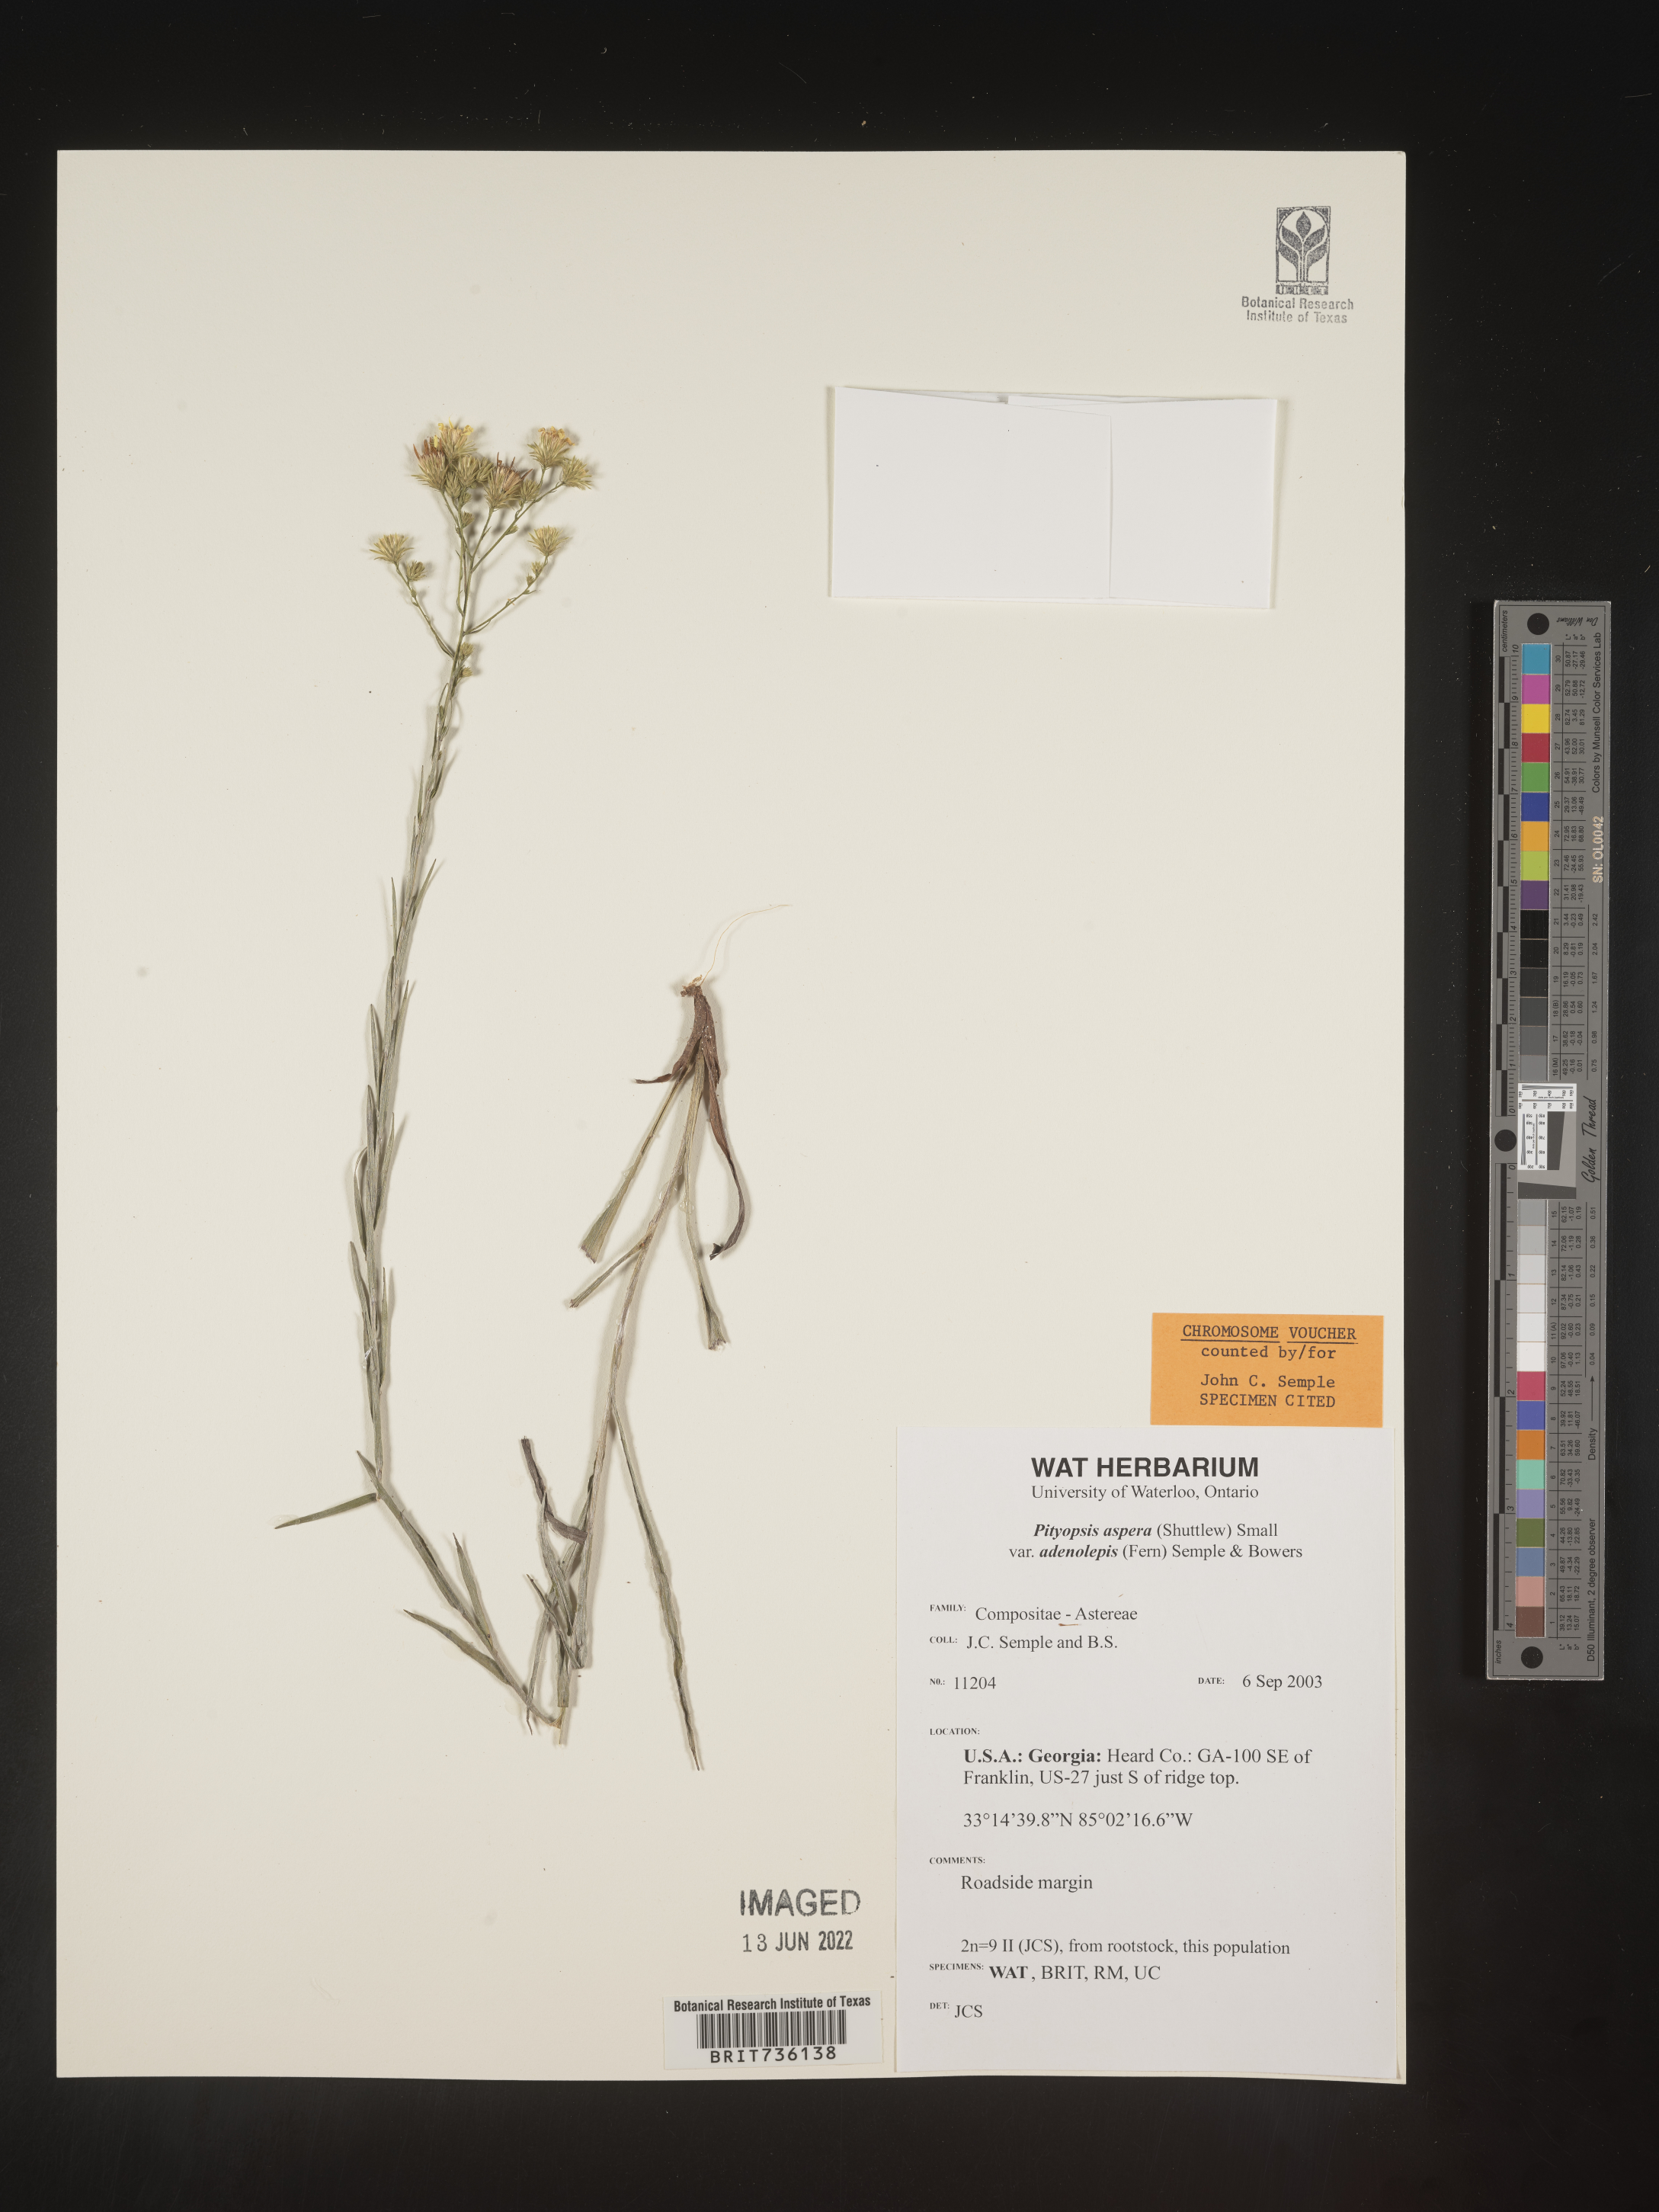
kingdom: Plantae
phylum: Tracheophyta
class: Magnoliopsida
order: Asterales
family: Asteraceae
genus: Pityopsis
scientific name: Pityopsis aspera
